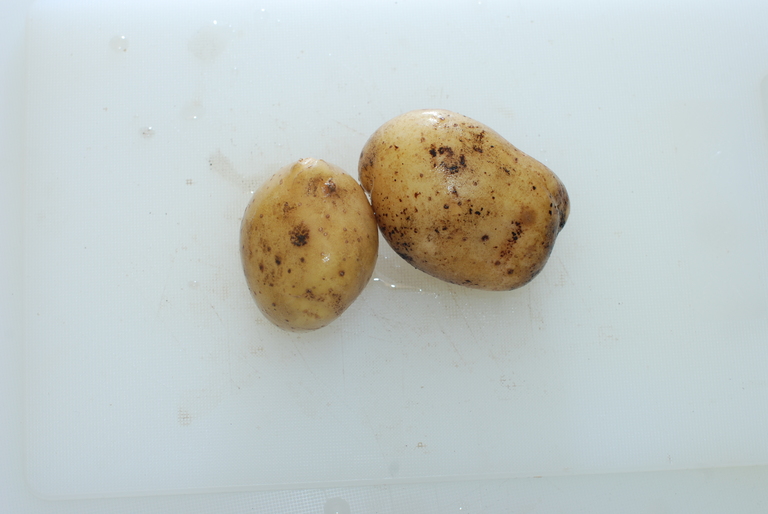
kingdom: Plantae
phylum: Tracheophyta
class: Magnoliopsida
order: Solanales
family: Solanaceae
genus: Solanum
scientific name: Solanum tuberosum
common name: Potato
